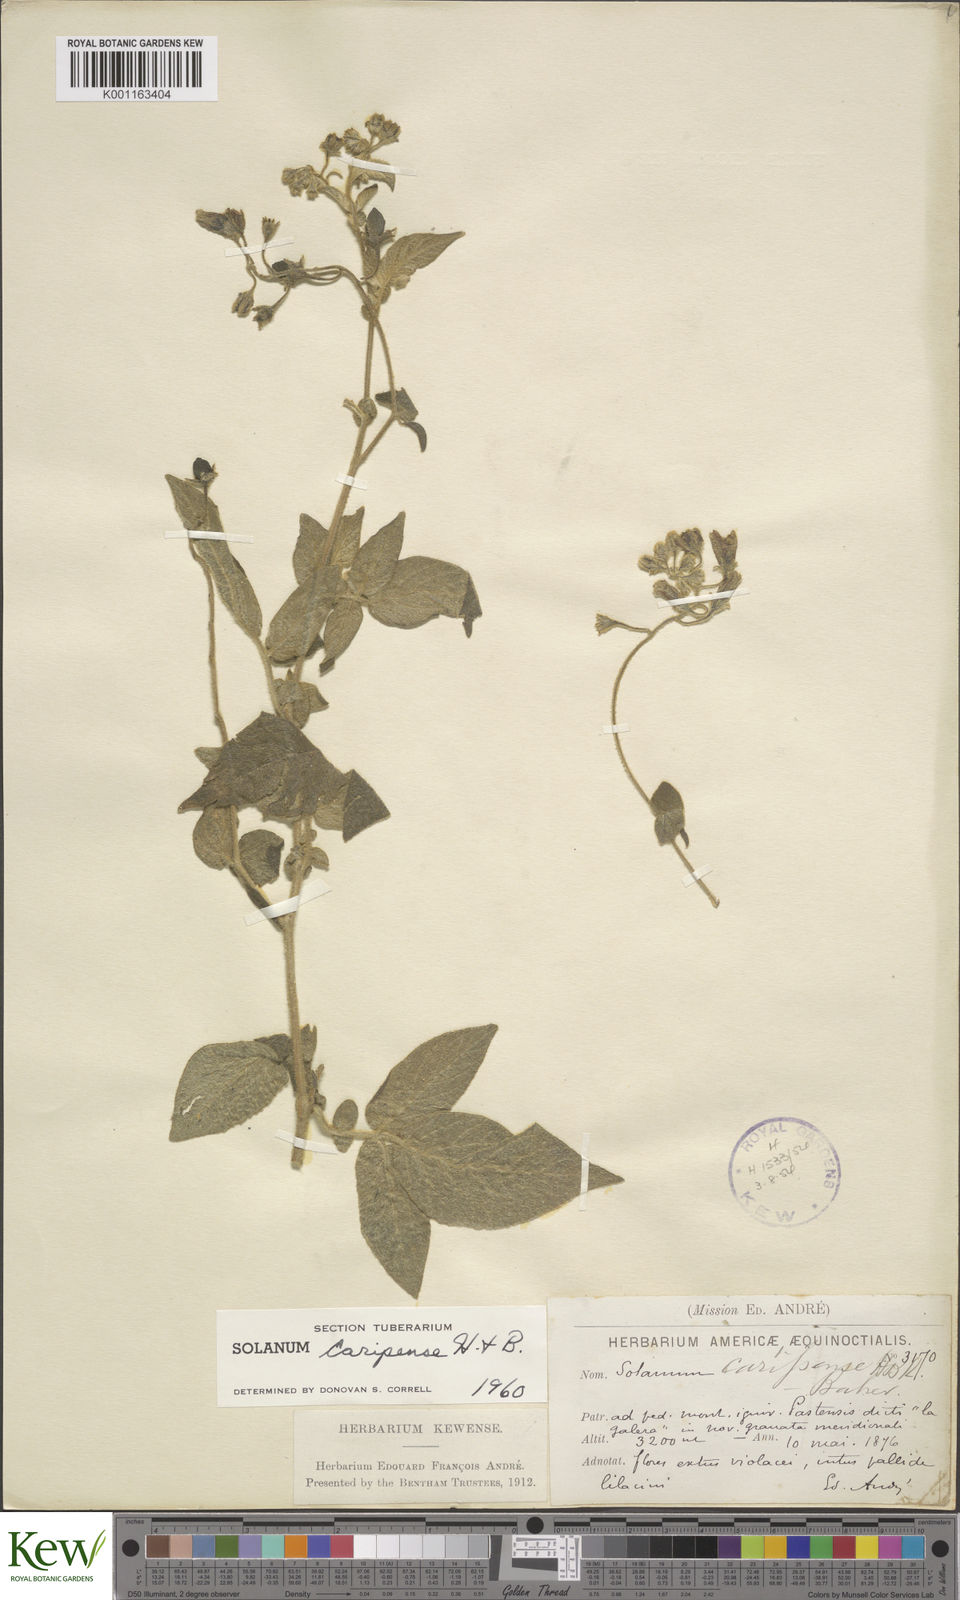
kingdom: Plantae
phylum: Tracheophyta
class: Magnoliopsida
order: Solanales
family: Solanaceae
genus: Solanum
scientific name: Solanum caripense
